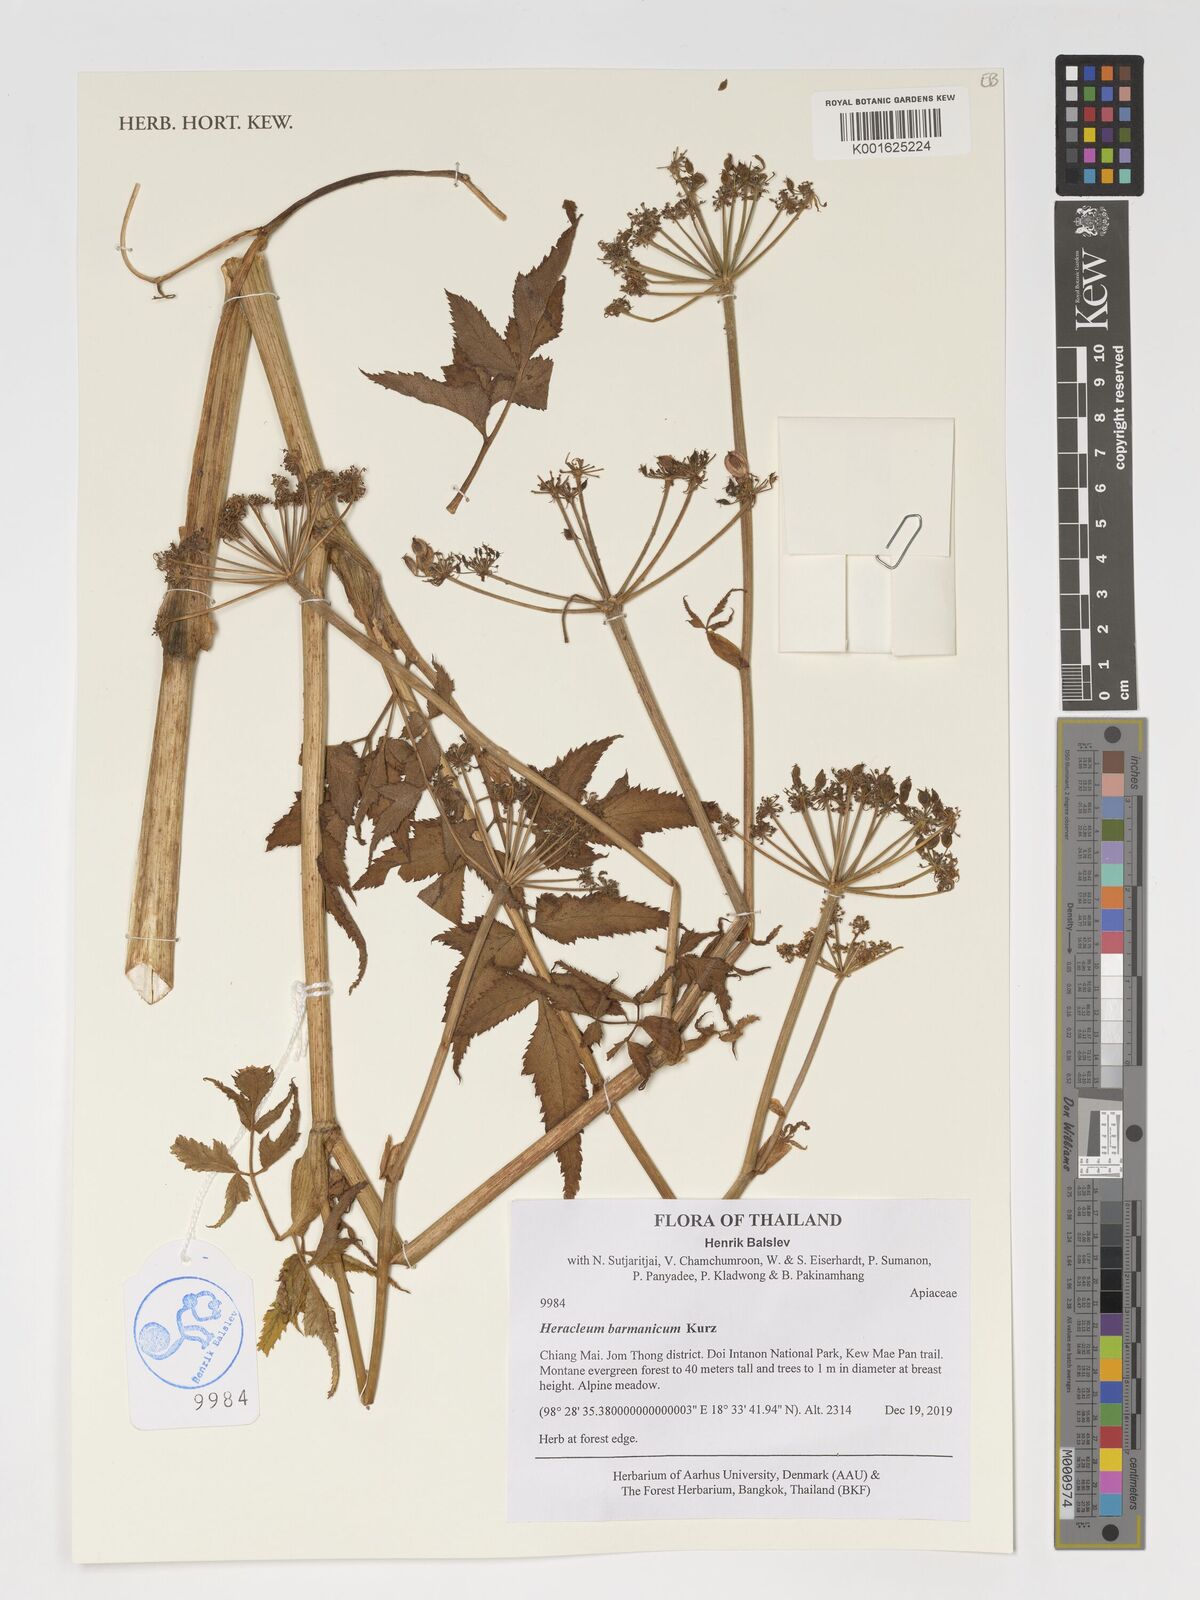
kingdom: Plantae
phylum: Tracheophyta
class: Magnoliopsida
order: Apiales
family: Apiaceae
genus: Heracleum
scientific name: Heracleum
